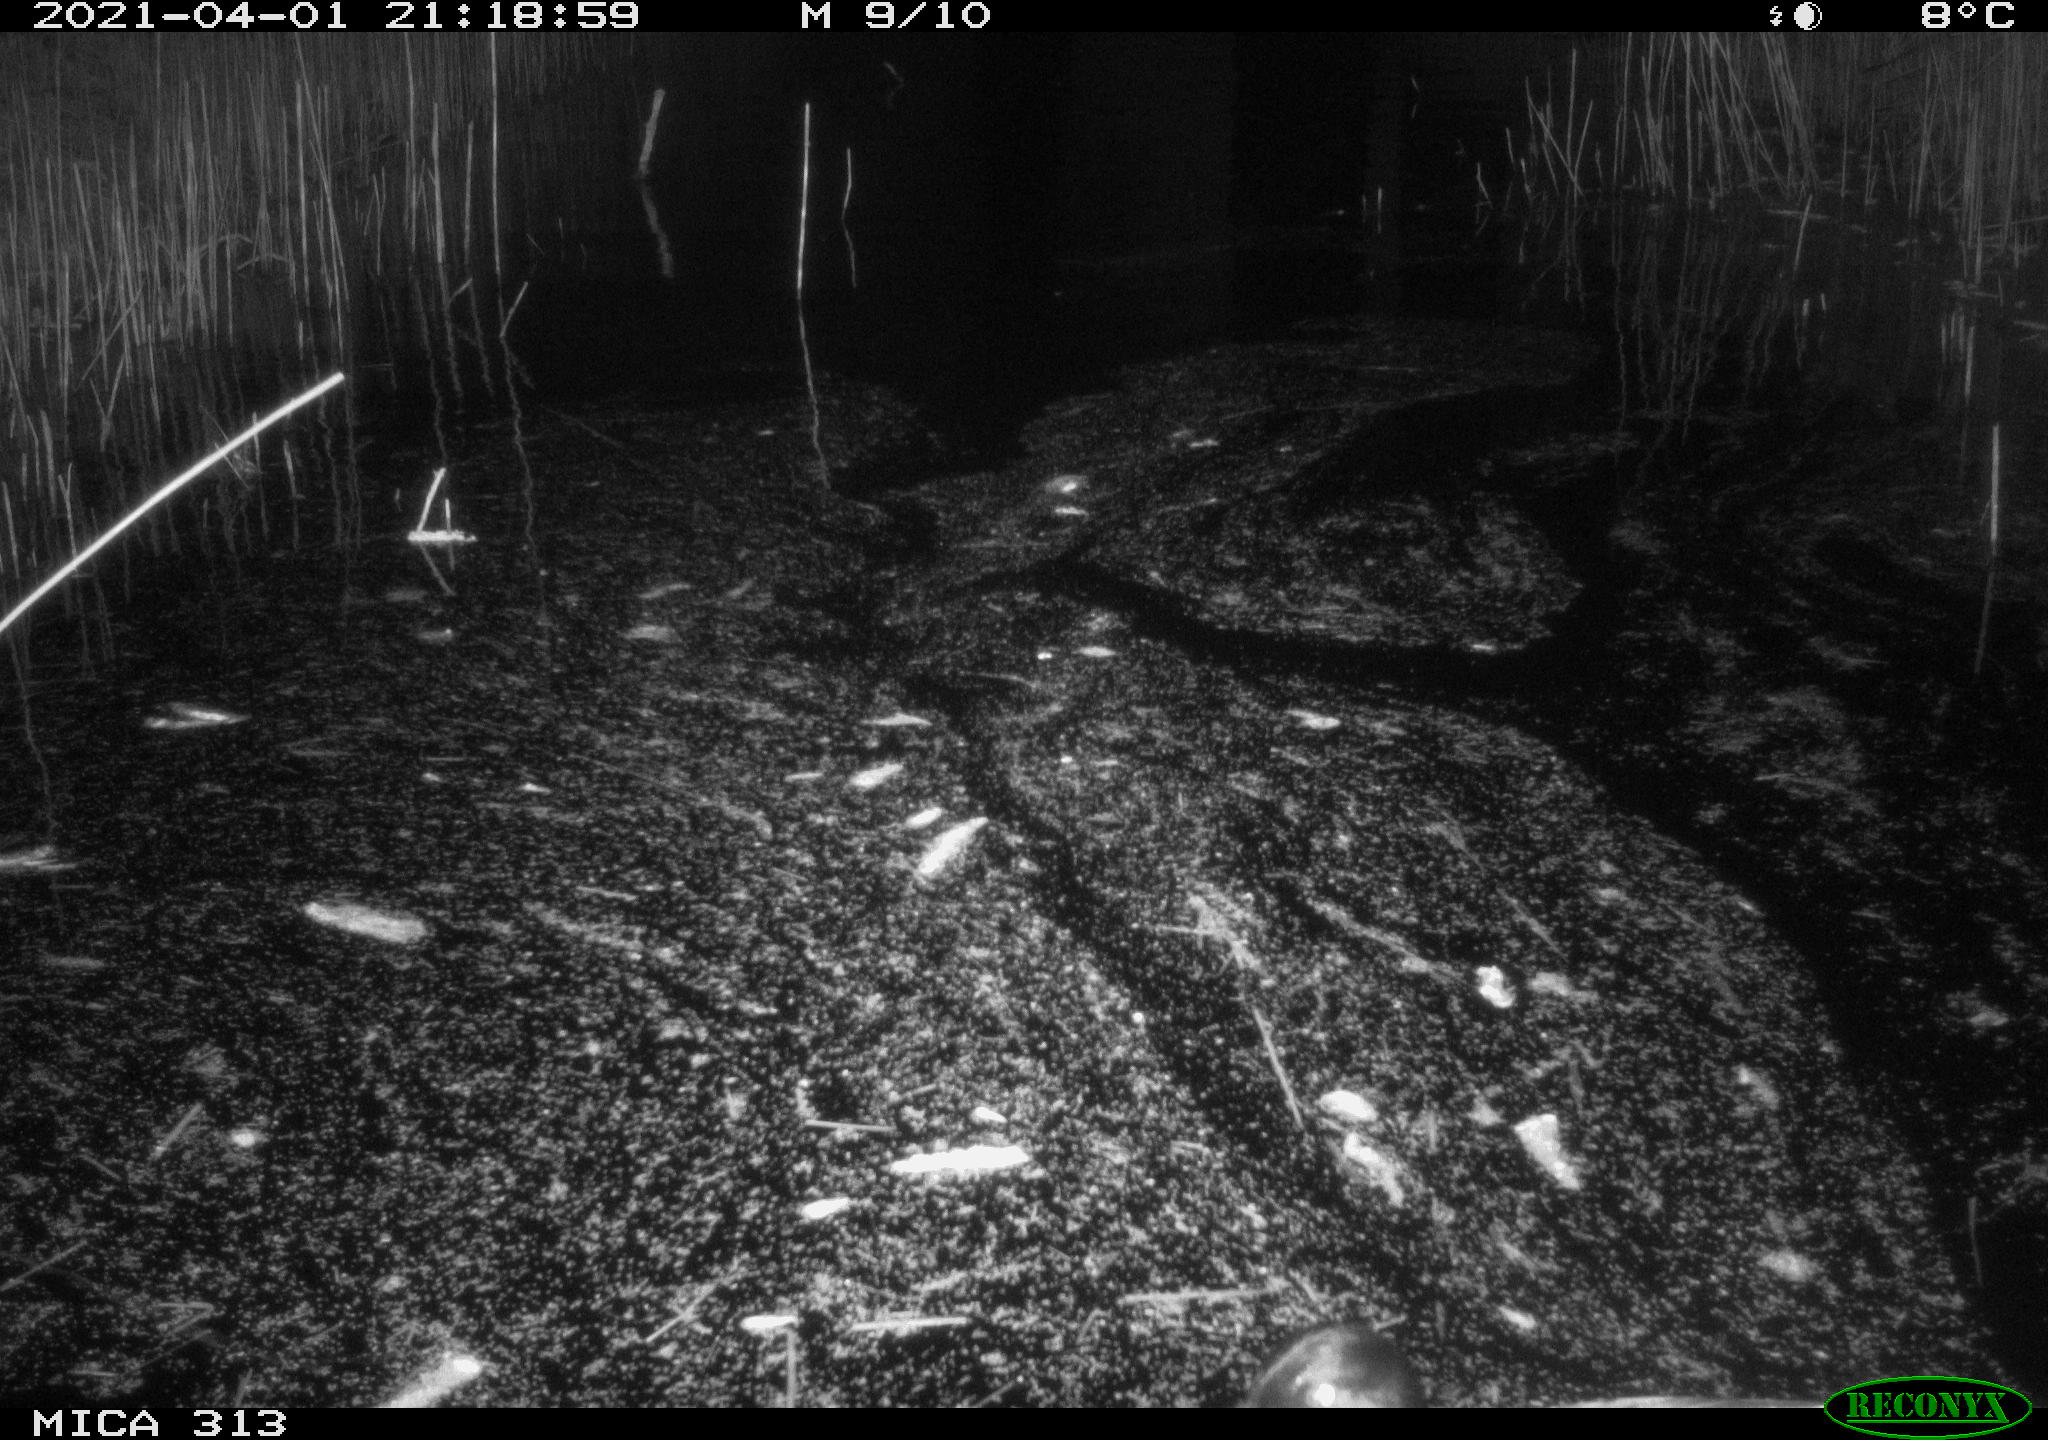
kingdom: Animalia
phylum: Chordata
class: Aves
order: Anseriformes
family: Anatidae
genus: Anas
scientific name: Anas platyrhynchos
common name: Mallard
